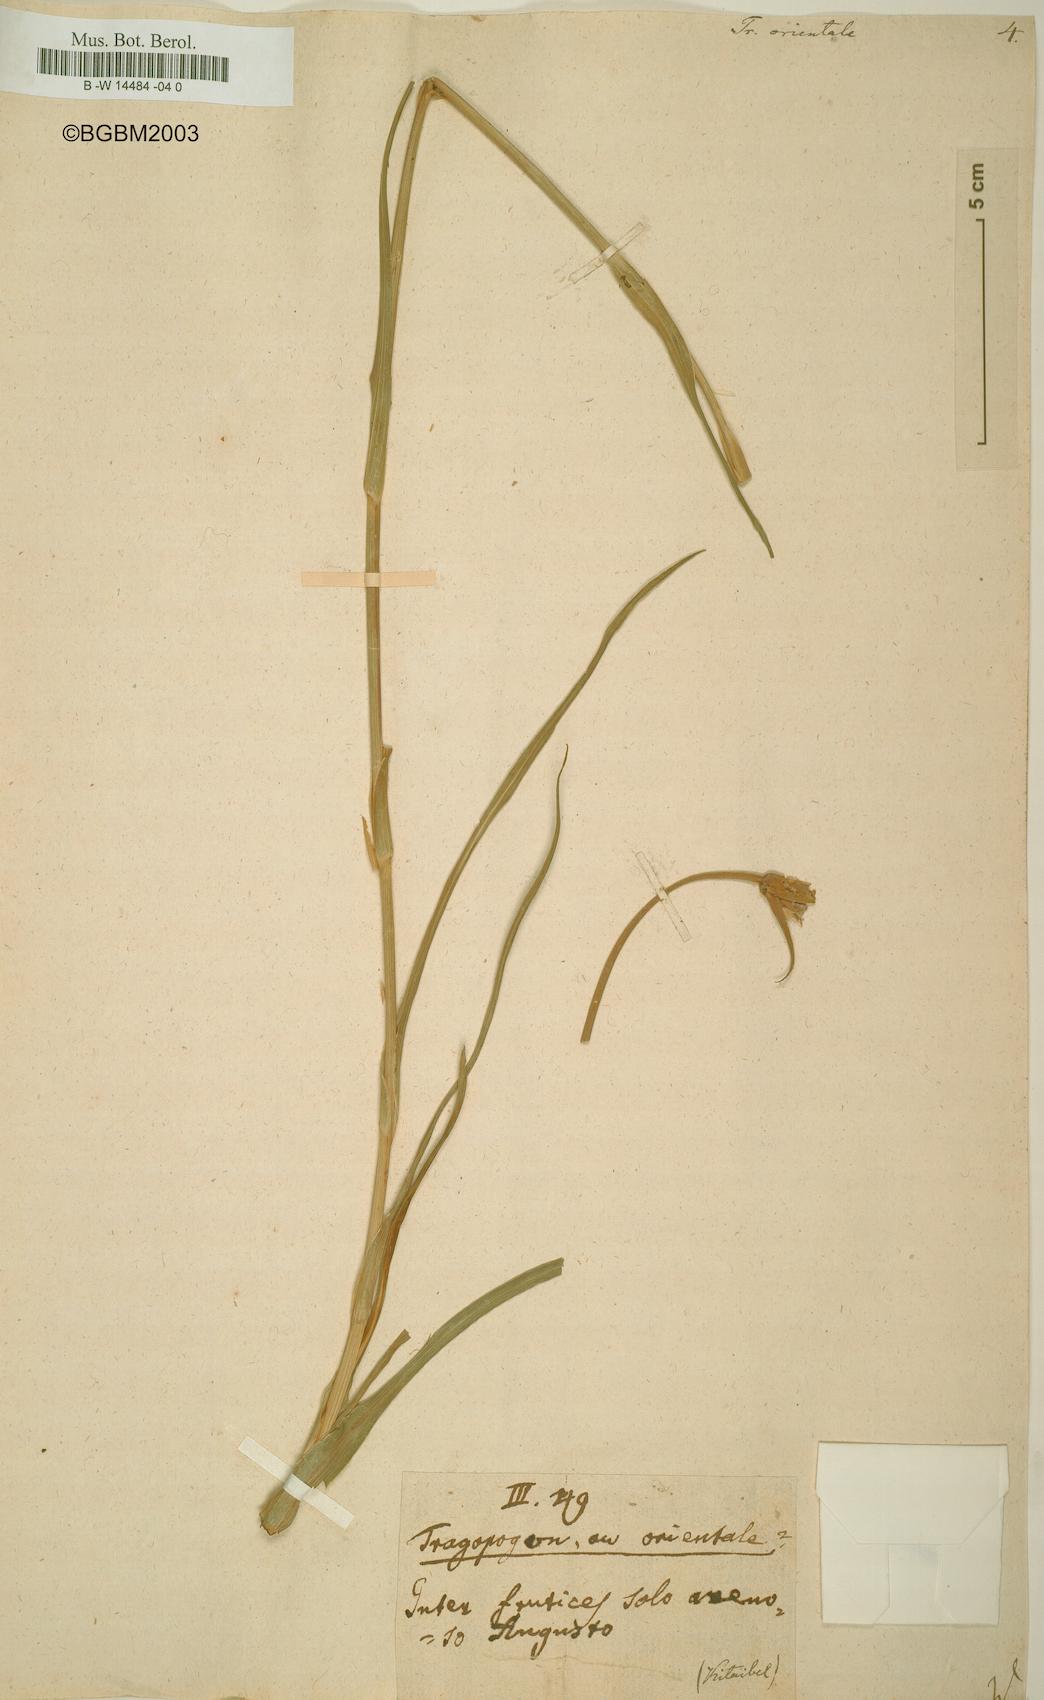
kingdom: Plantae
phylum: Tracheophyta
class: Magnoliopsida
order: Asterales
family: Asteraceae
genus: Tragopogon
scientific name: Tragopogon orientalis
